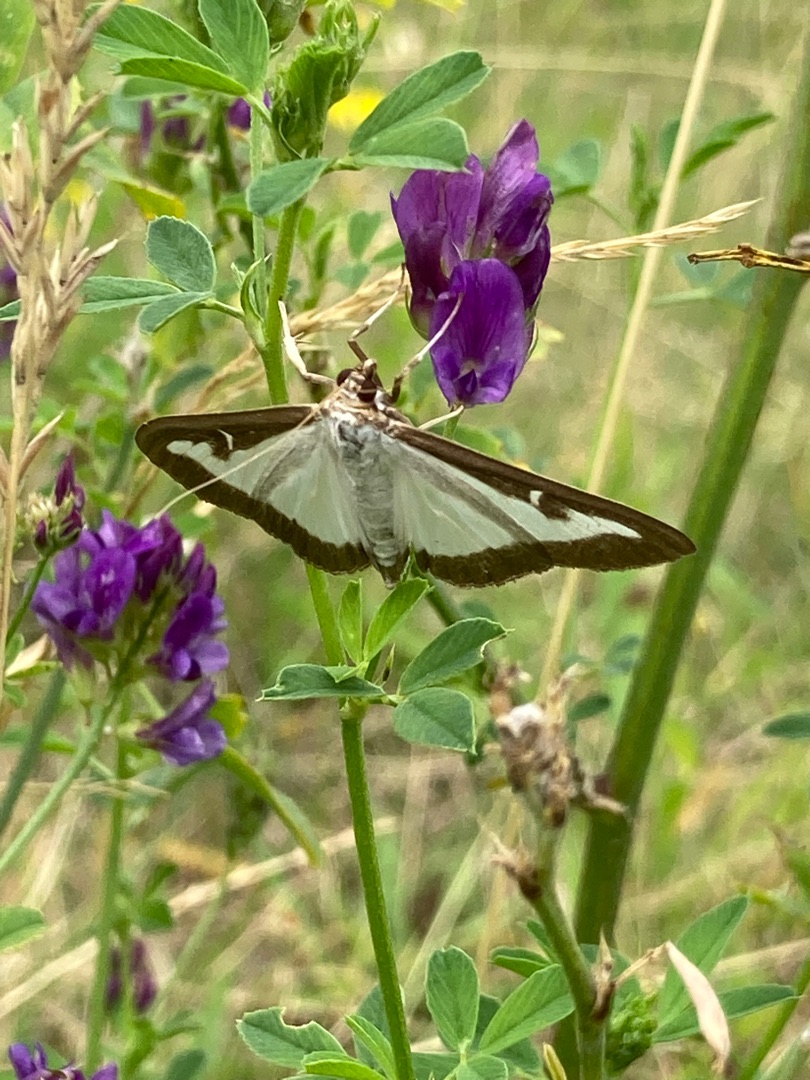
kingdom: Animalia
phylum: Arthropoda
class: Insecta
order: Lepidoptera
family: Crambidae
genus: Cydalima
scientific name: Cydalima perspectalis
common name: Buksbomhalvmøl
